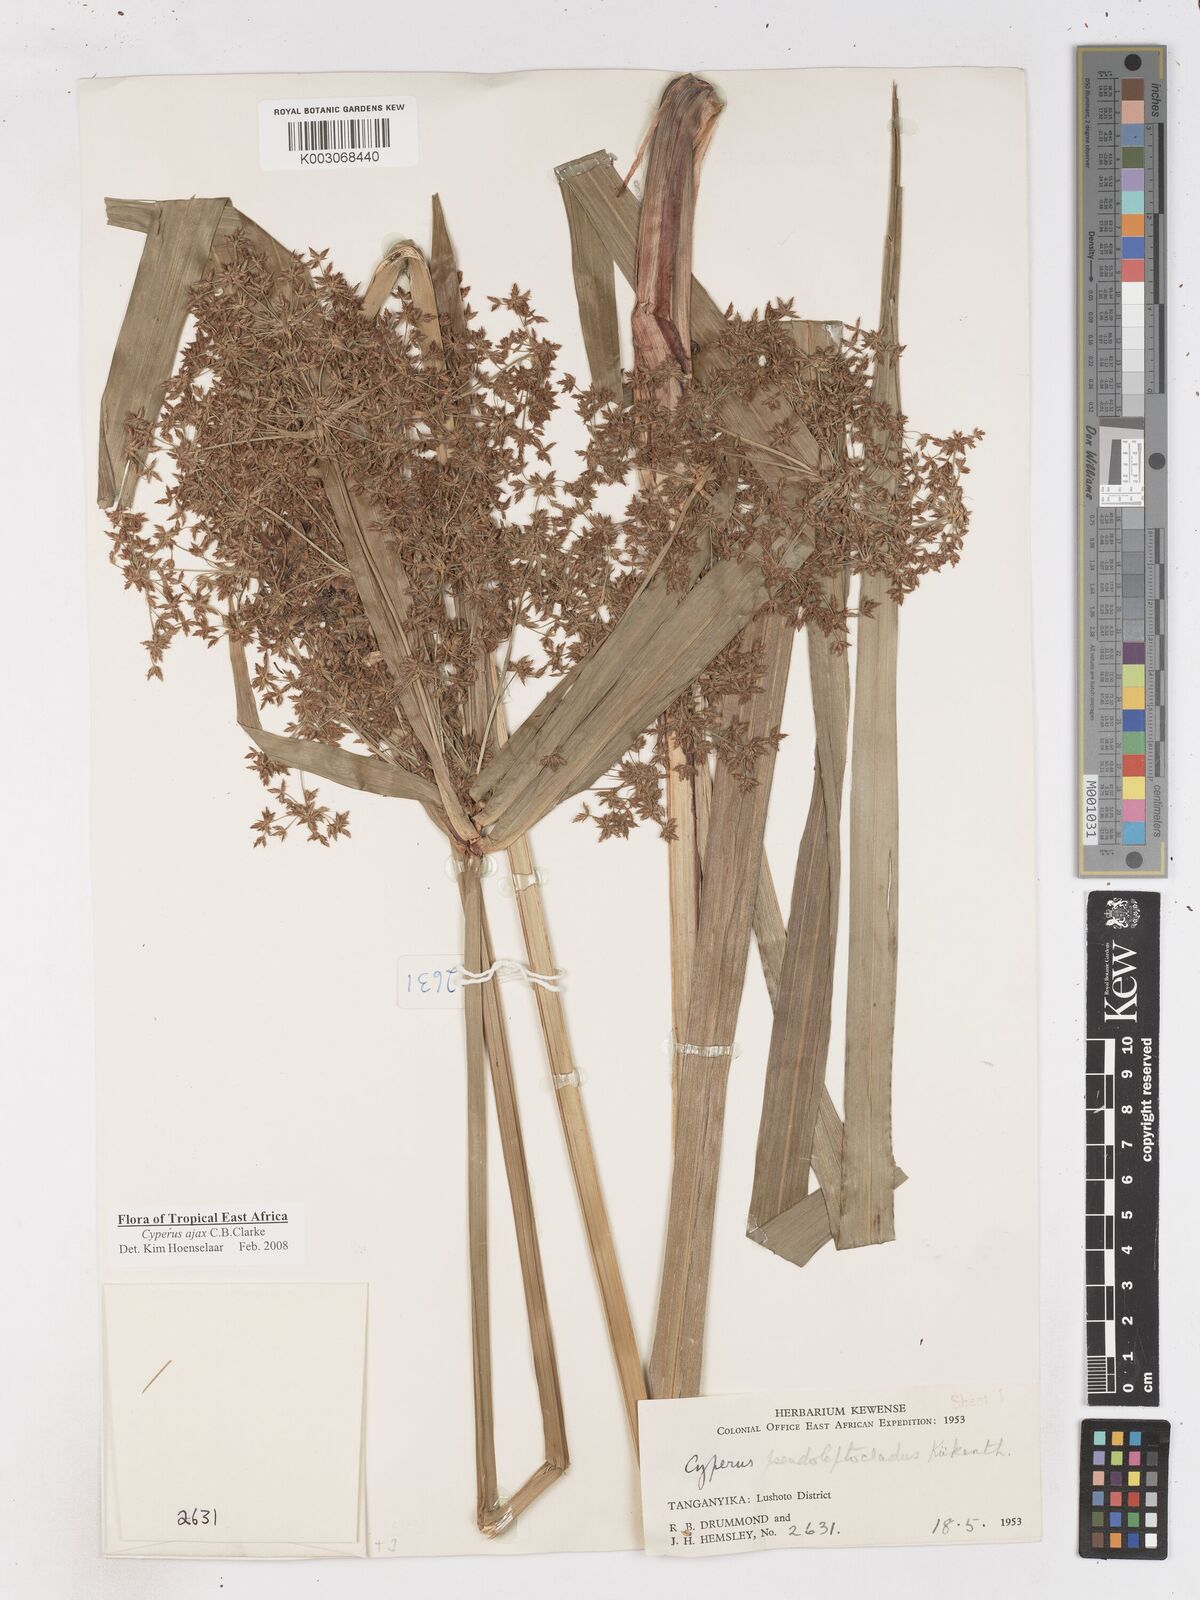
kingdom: Plantae
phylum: Tracheophyta
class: Liliopsida
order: Poales
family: Cyperaceae
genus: Cyperus
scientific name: Cyperus ajax
